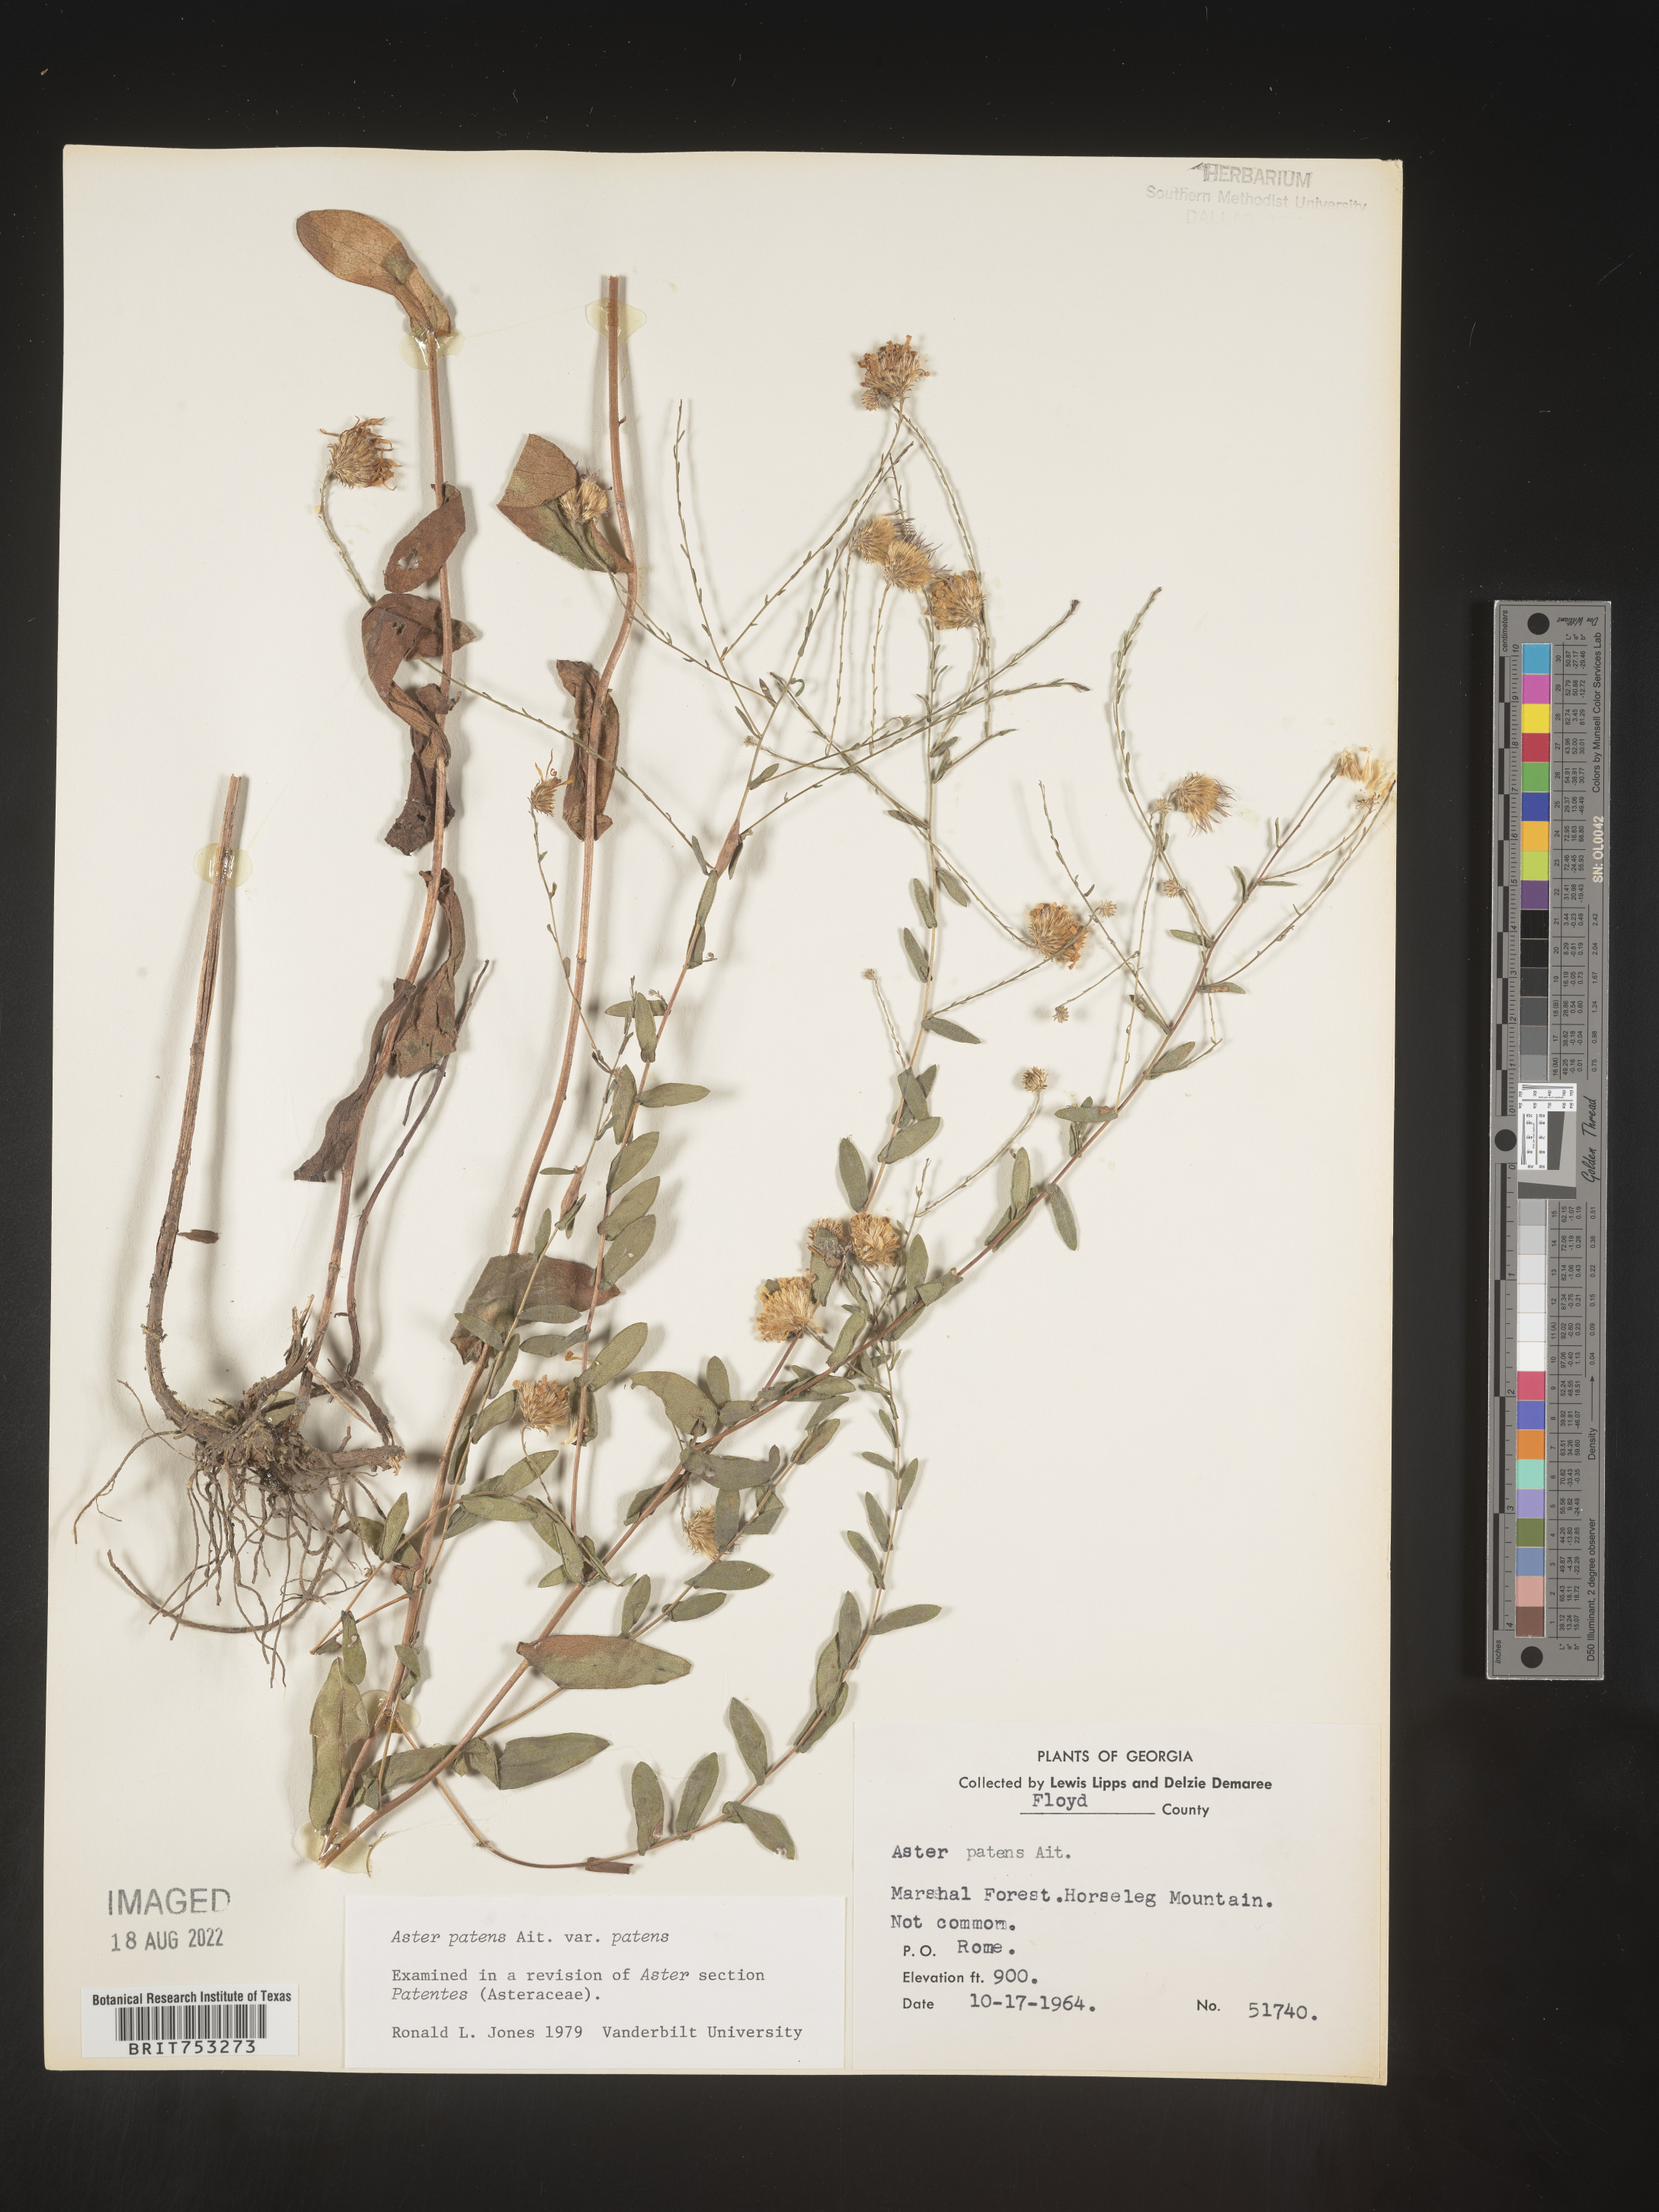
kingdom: Plantae
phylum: Tracheophyta
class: Magnoliopsida
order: Asterales
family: Asteraceae
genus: Symphyotrichum
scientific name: Symphyotrichum patens
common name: Late purple aster
